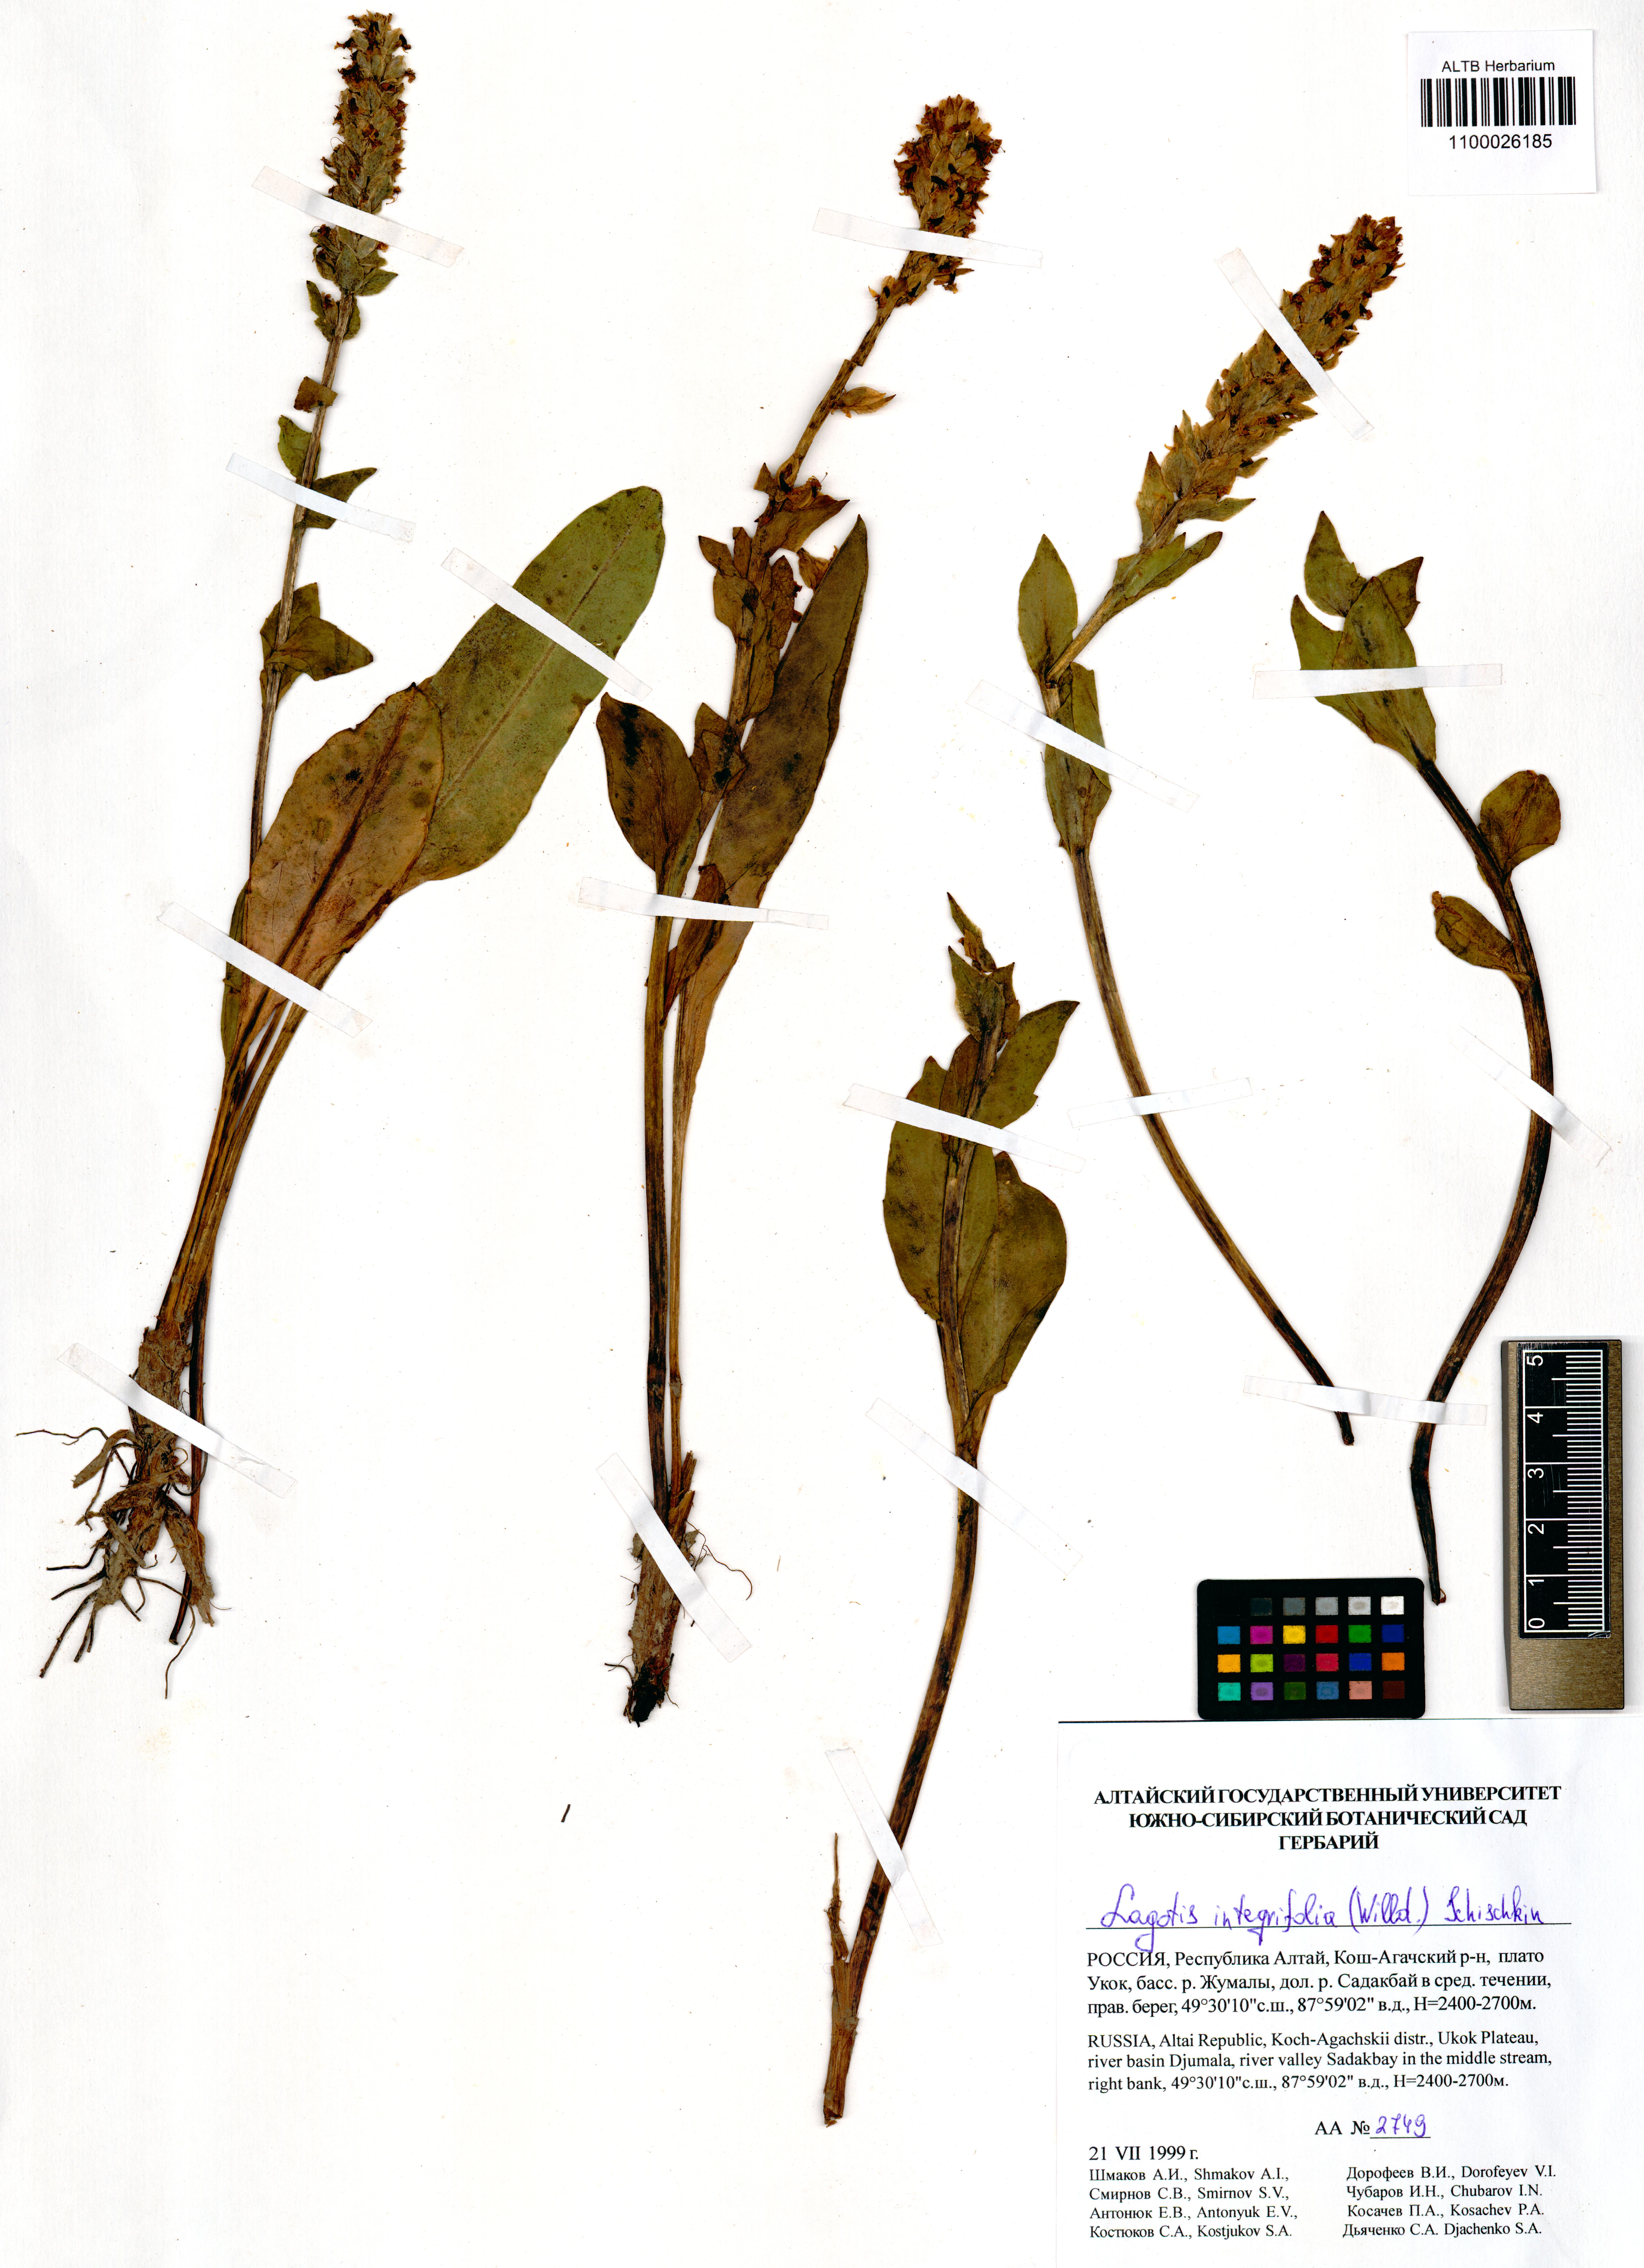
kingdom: Plantae
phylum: Tracheophyta
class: Magnoliopsida
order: Lamiales
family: Plantaginaceae
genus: Lagotis
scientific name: Lagotis integrifolia
